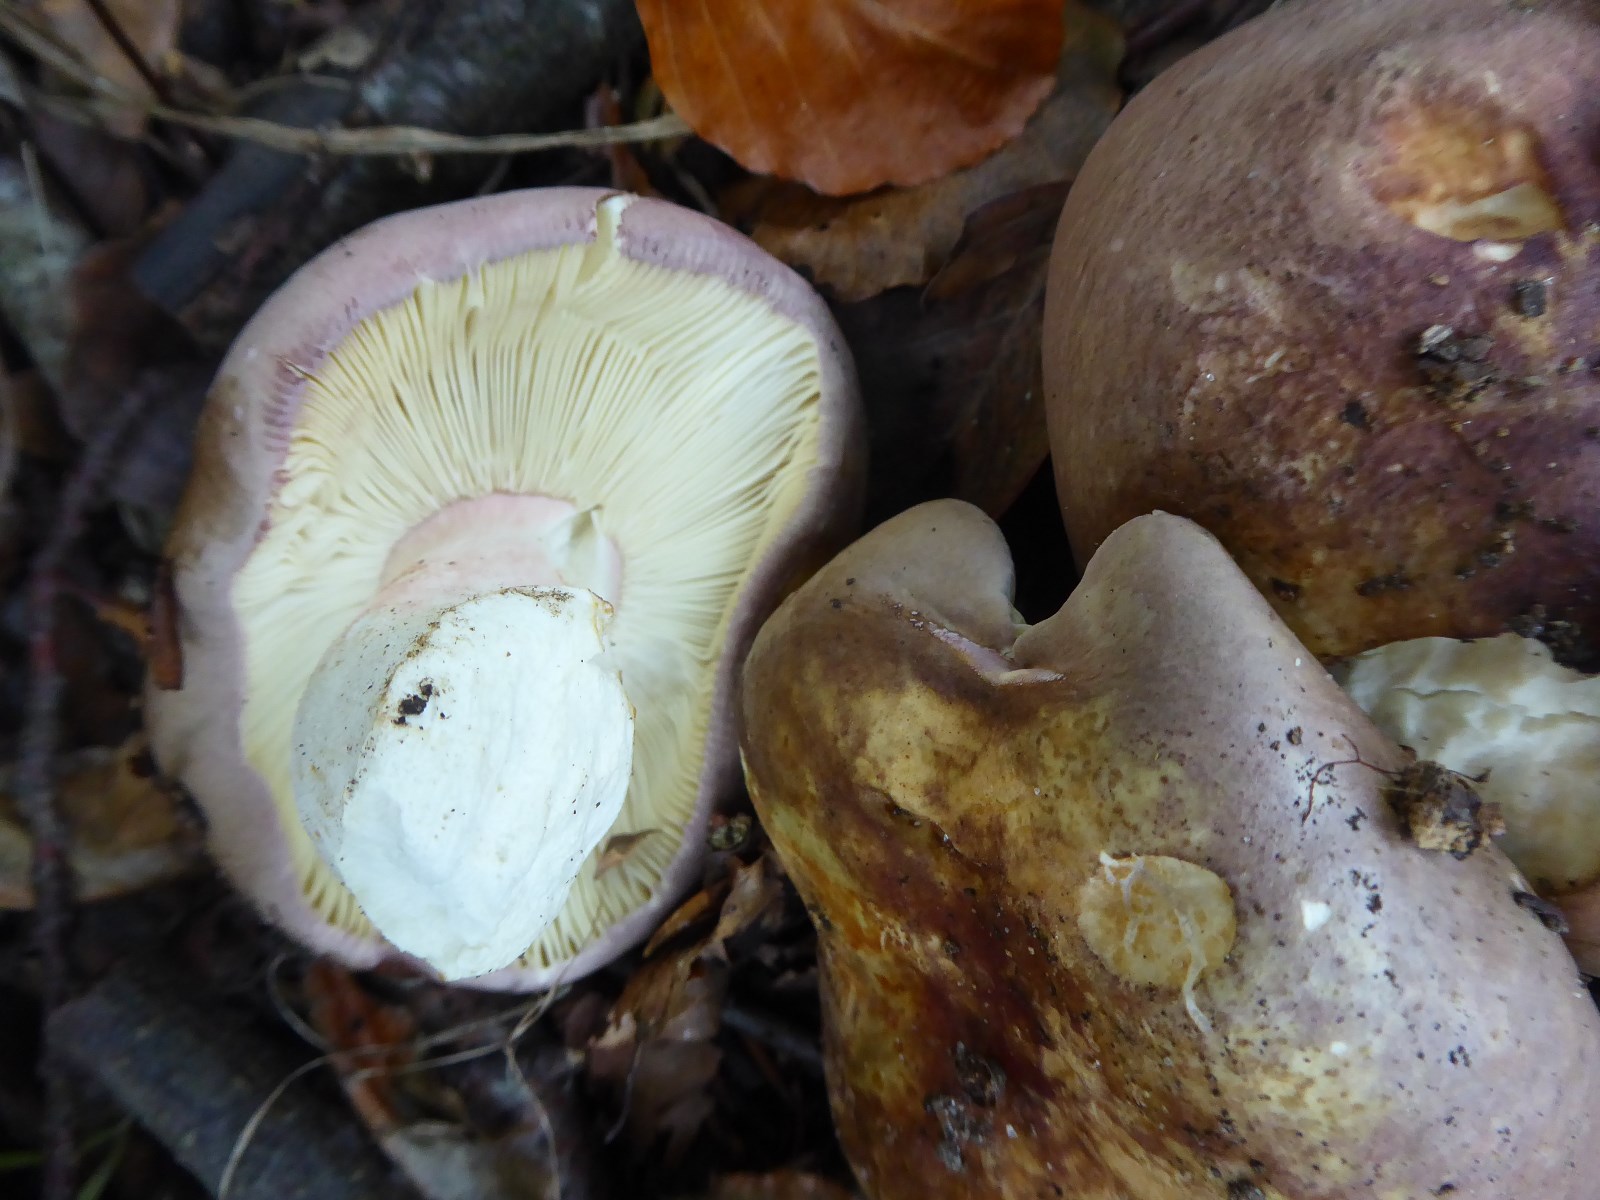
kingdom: Fungi
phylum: Basidiomycota
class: Agaricomycetes
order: Russulales
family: Russulaceae
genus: Russula
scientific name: Russula olivacea
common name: stor skørhat
